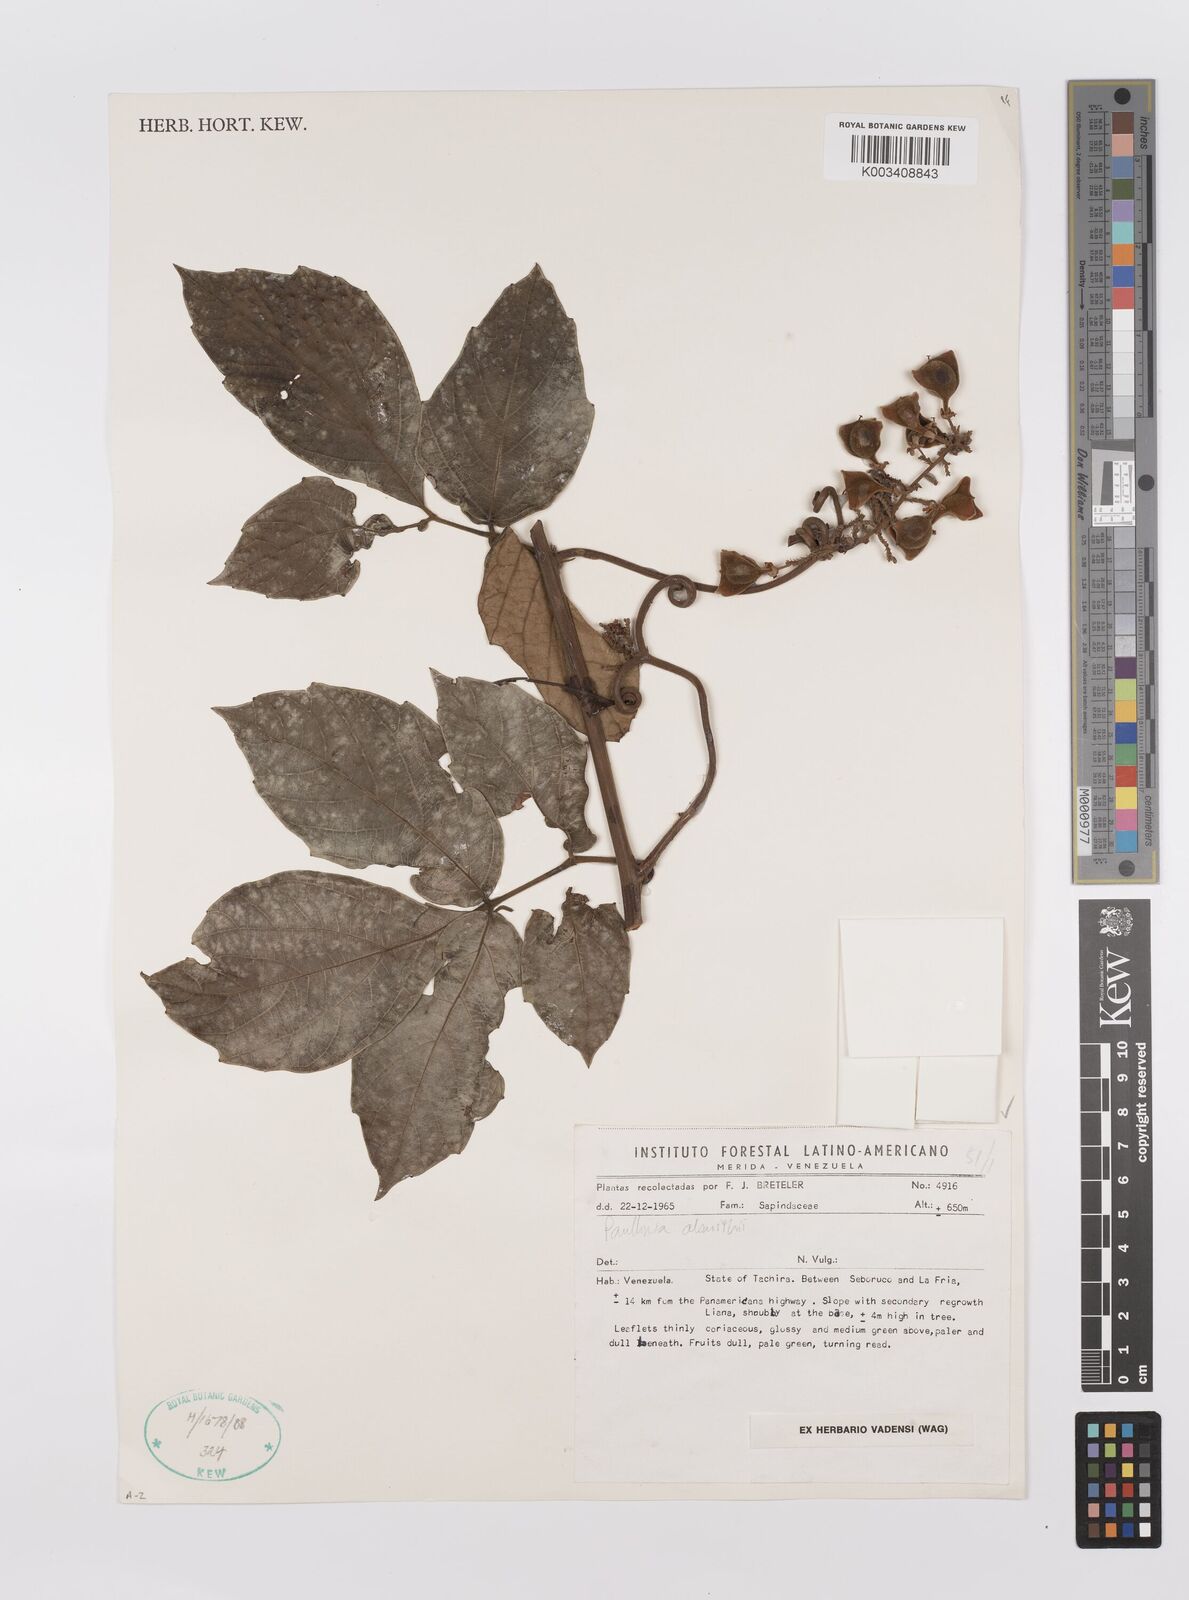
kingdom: Plantae
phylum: Tracheophyta
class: Magnoliopsida
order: Sapindales
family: Sapindaceae
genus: Paullinia
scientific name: Paullinia alsmithii
